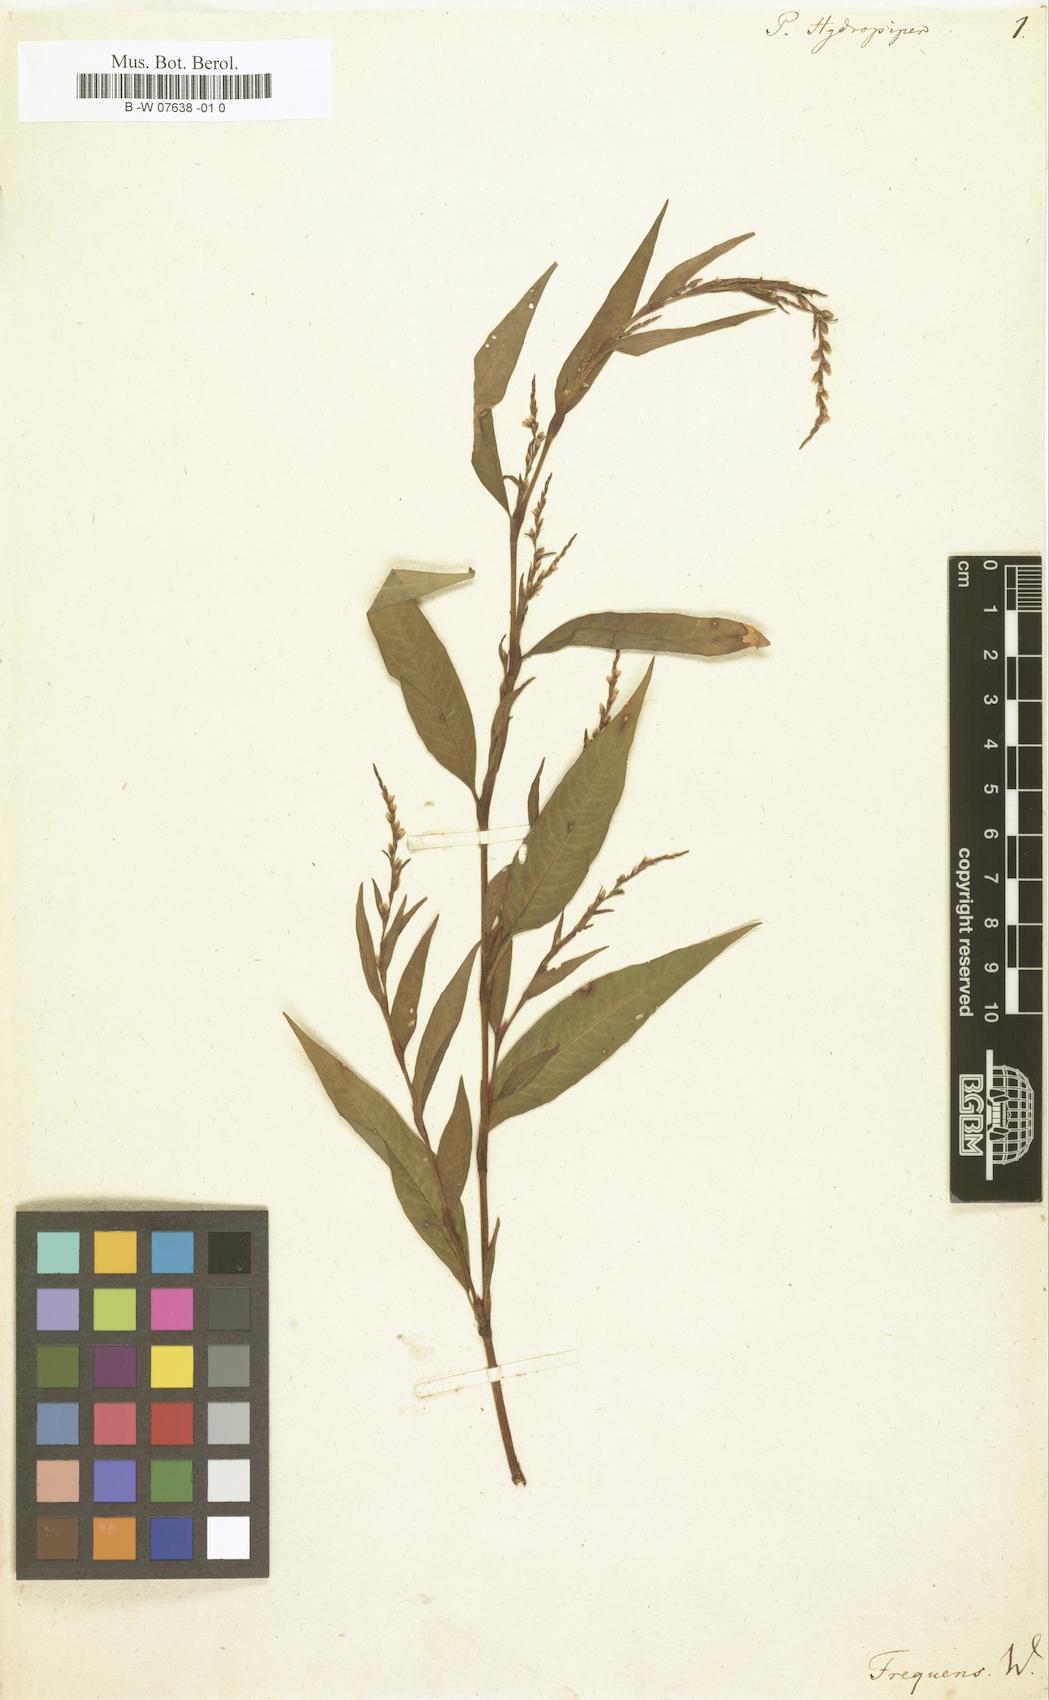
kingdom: Plantae
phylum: Tracheophyta
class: Magnoliopsida
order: Caryophyllales
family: Polygonaceae
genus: Persicaria
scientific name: Persicaria
